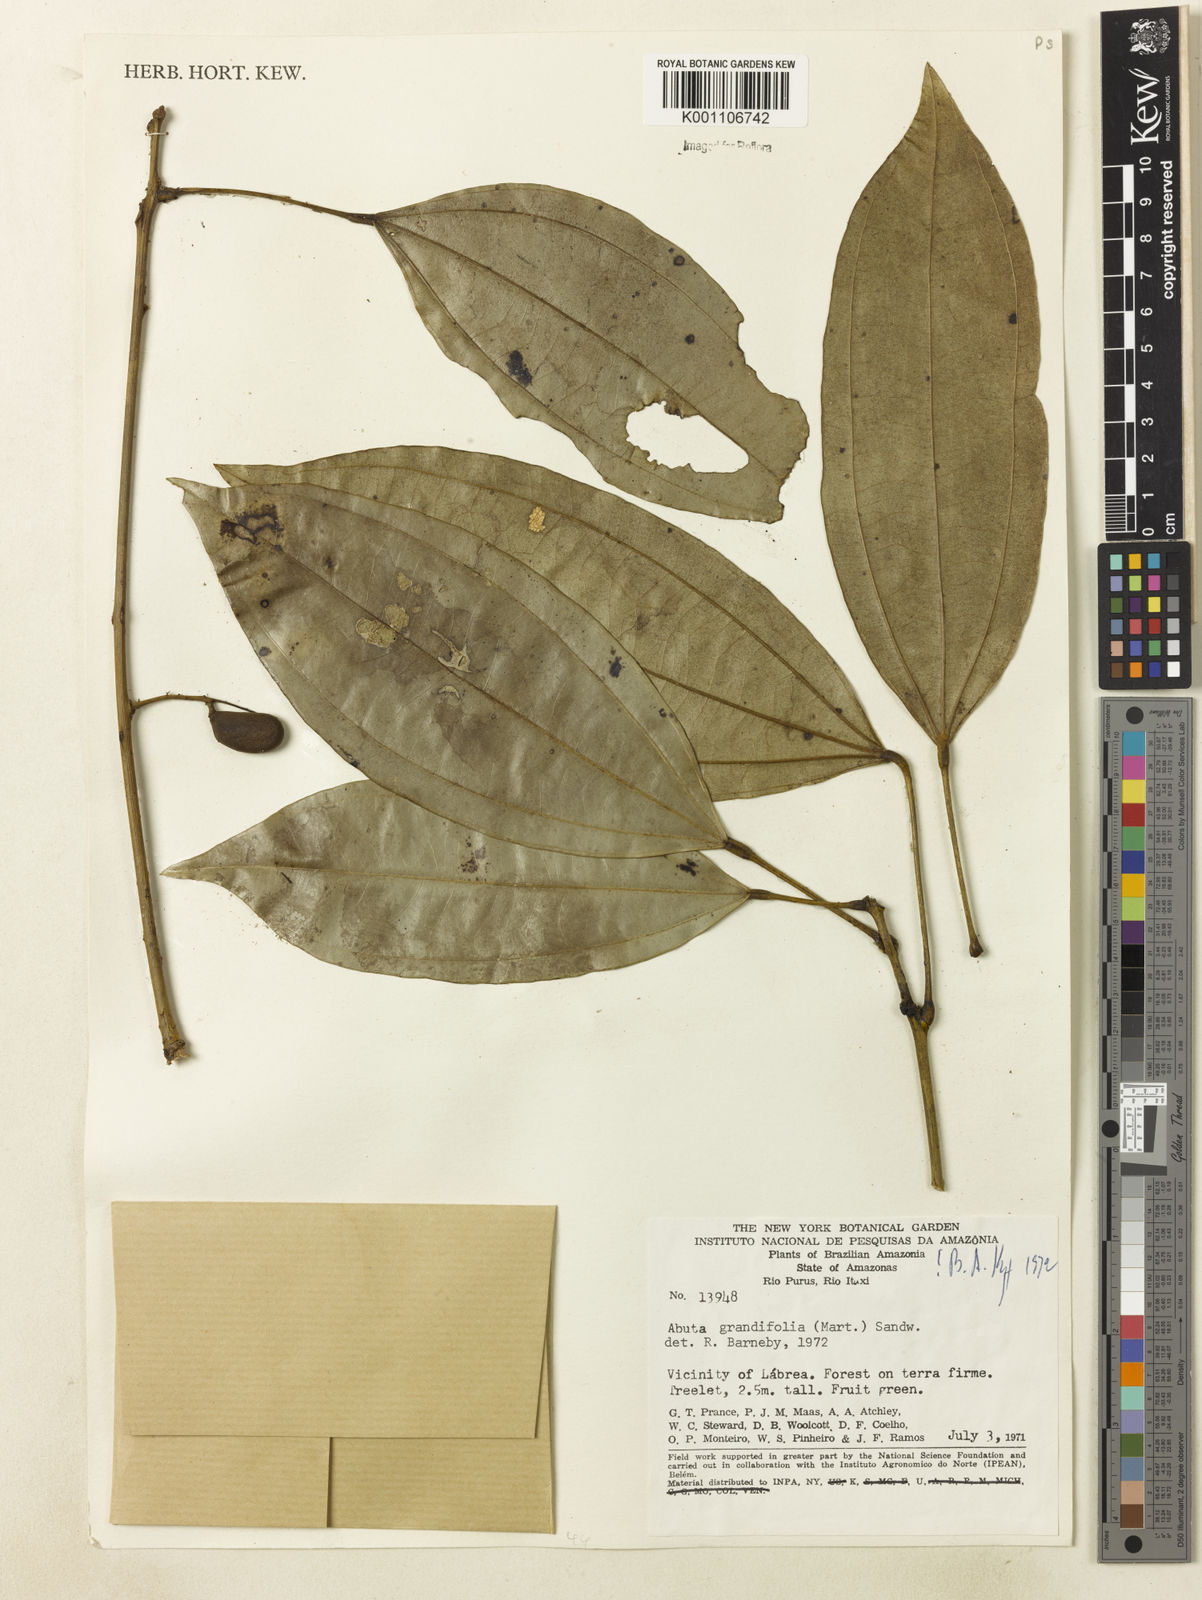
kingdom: Plantae
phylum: Tracheophyta
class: Magnoliopsida
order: Ranunculales
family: Menispermaceae
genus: Abuta
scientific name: Abuta grandifolia
